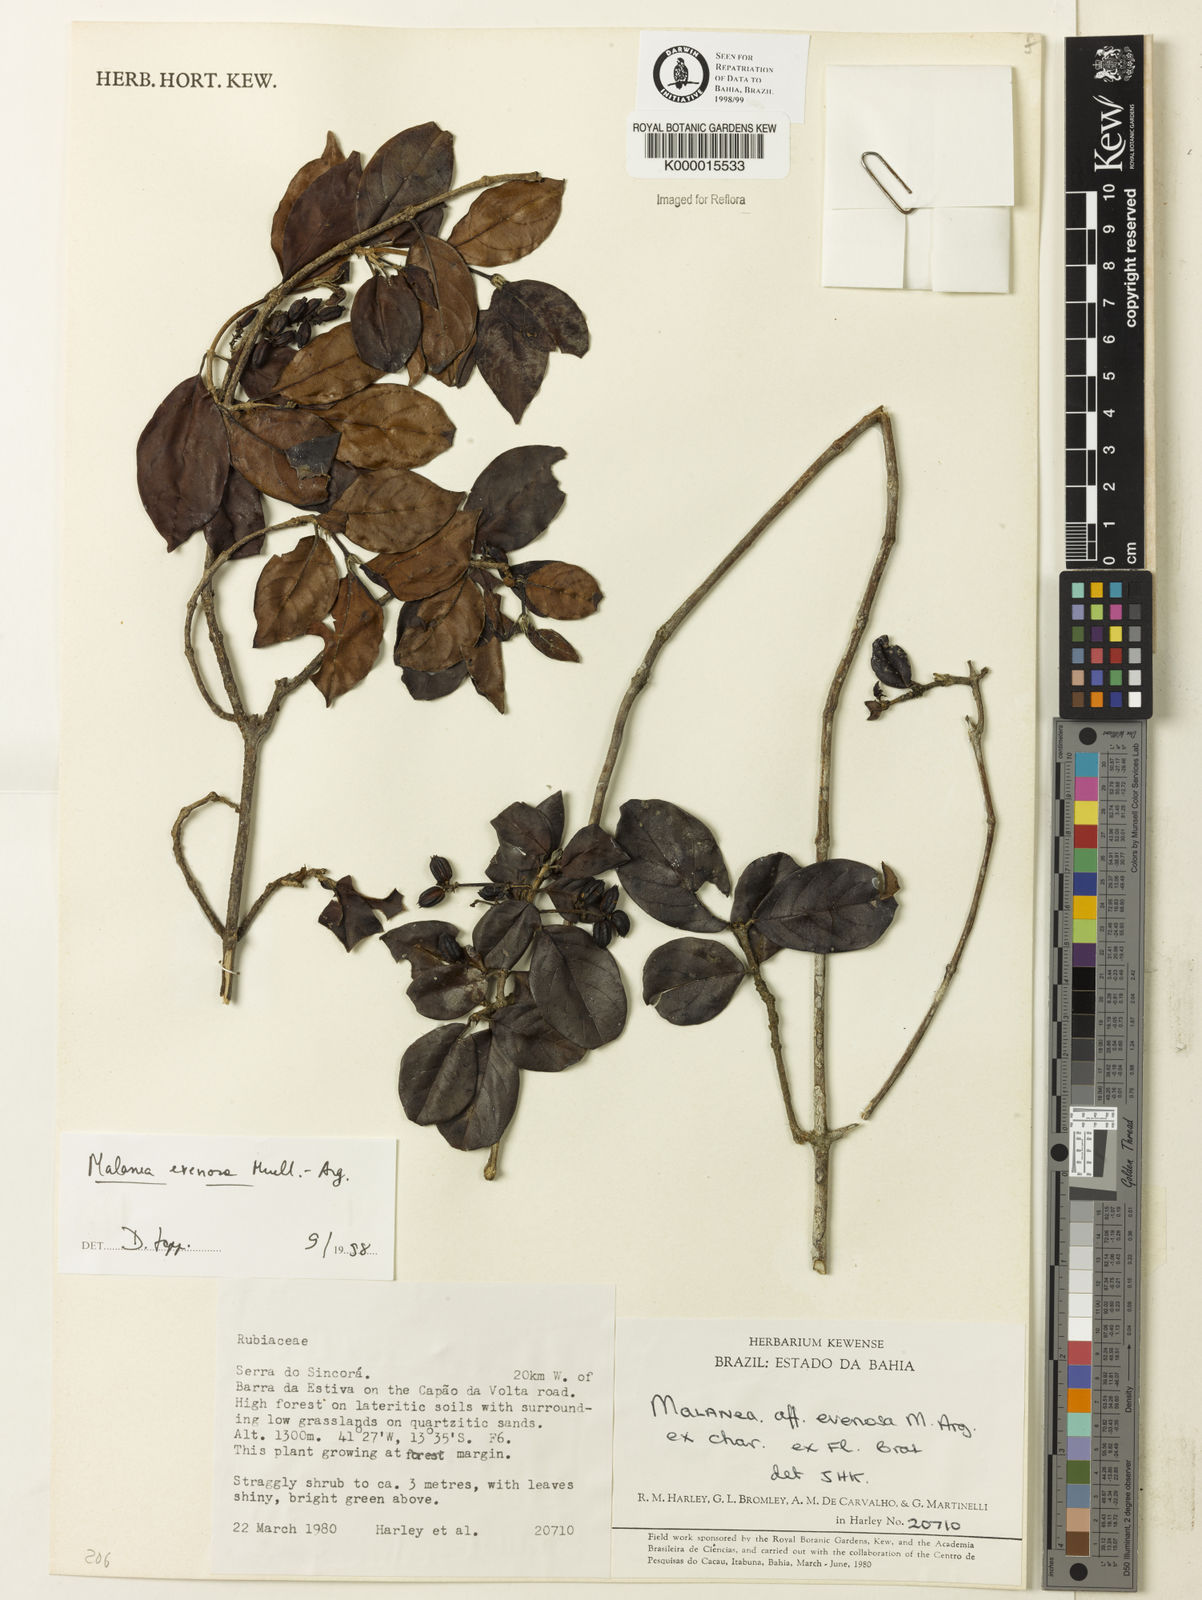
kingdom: Plantae
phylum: Tracheophyta
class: Magnoliopsida
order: Gentianales
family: Rubiaceae
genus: Malanea
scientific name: Malanea evenosa
